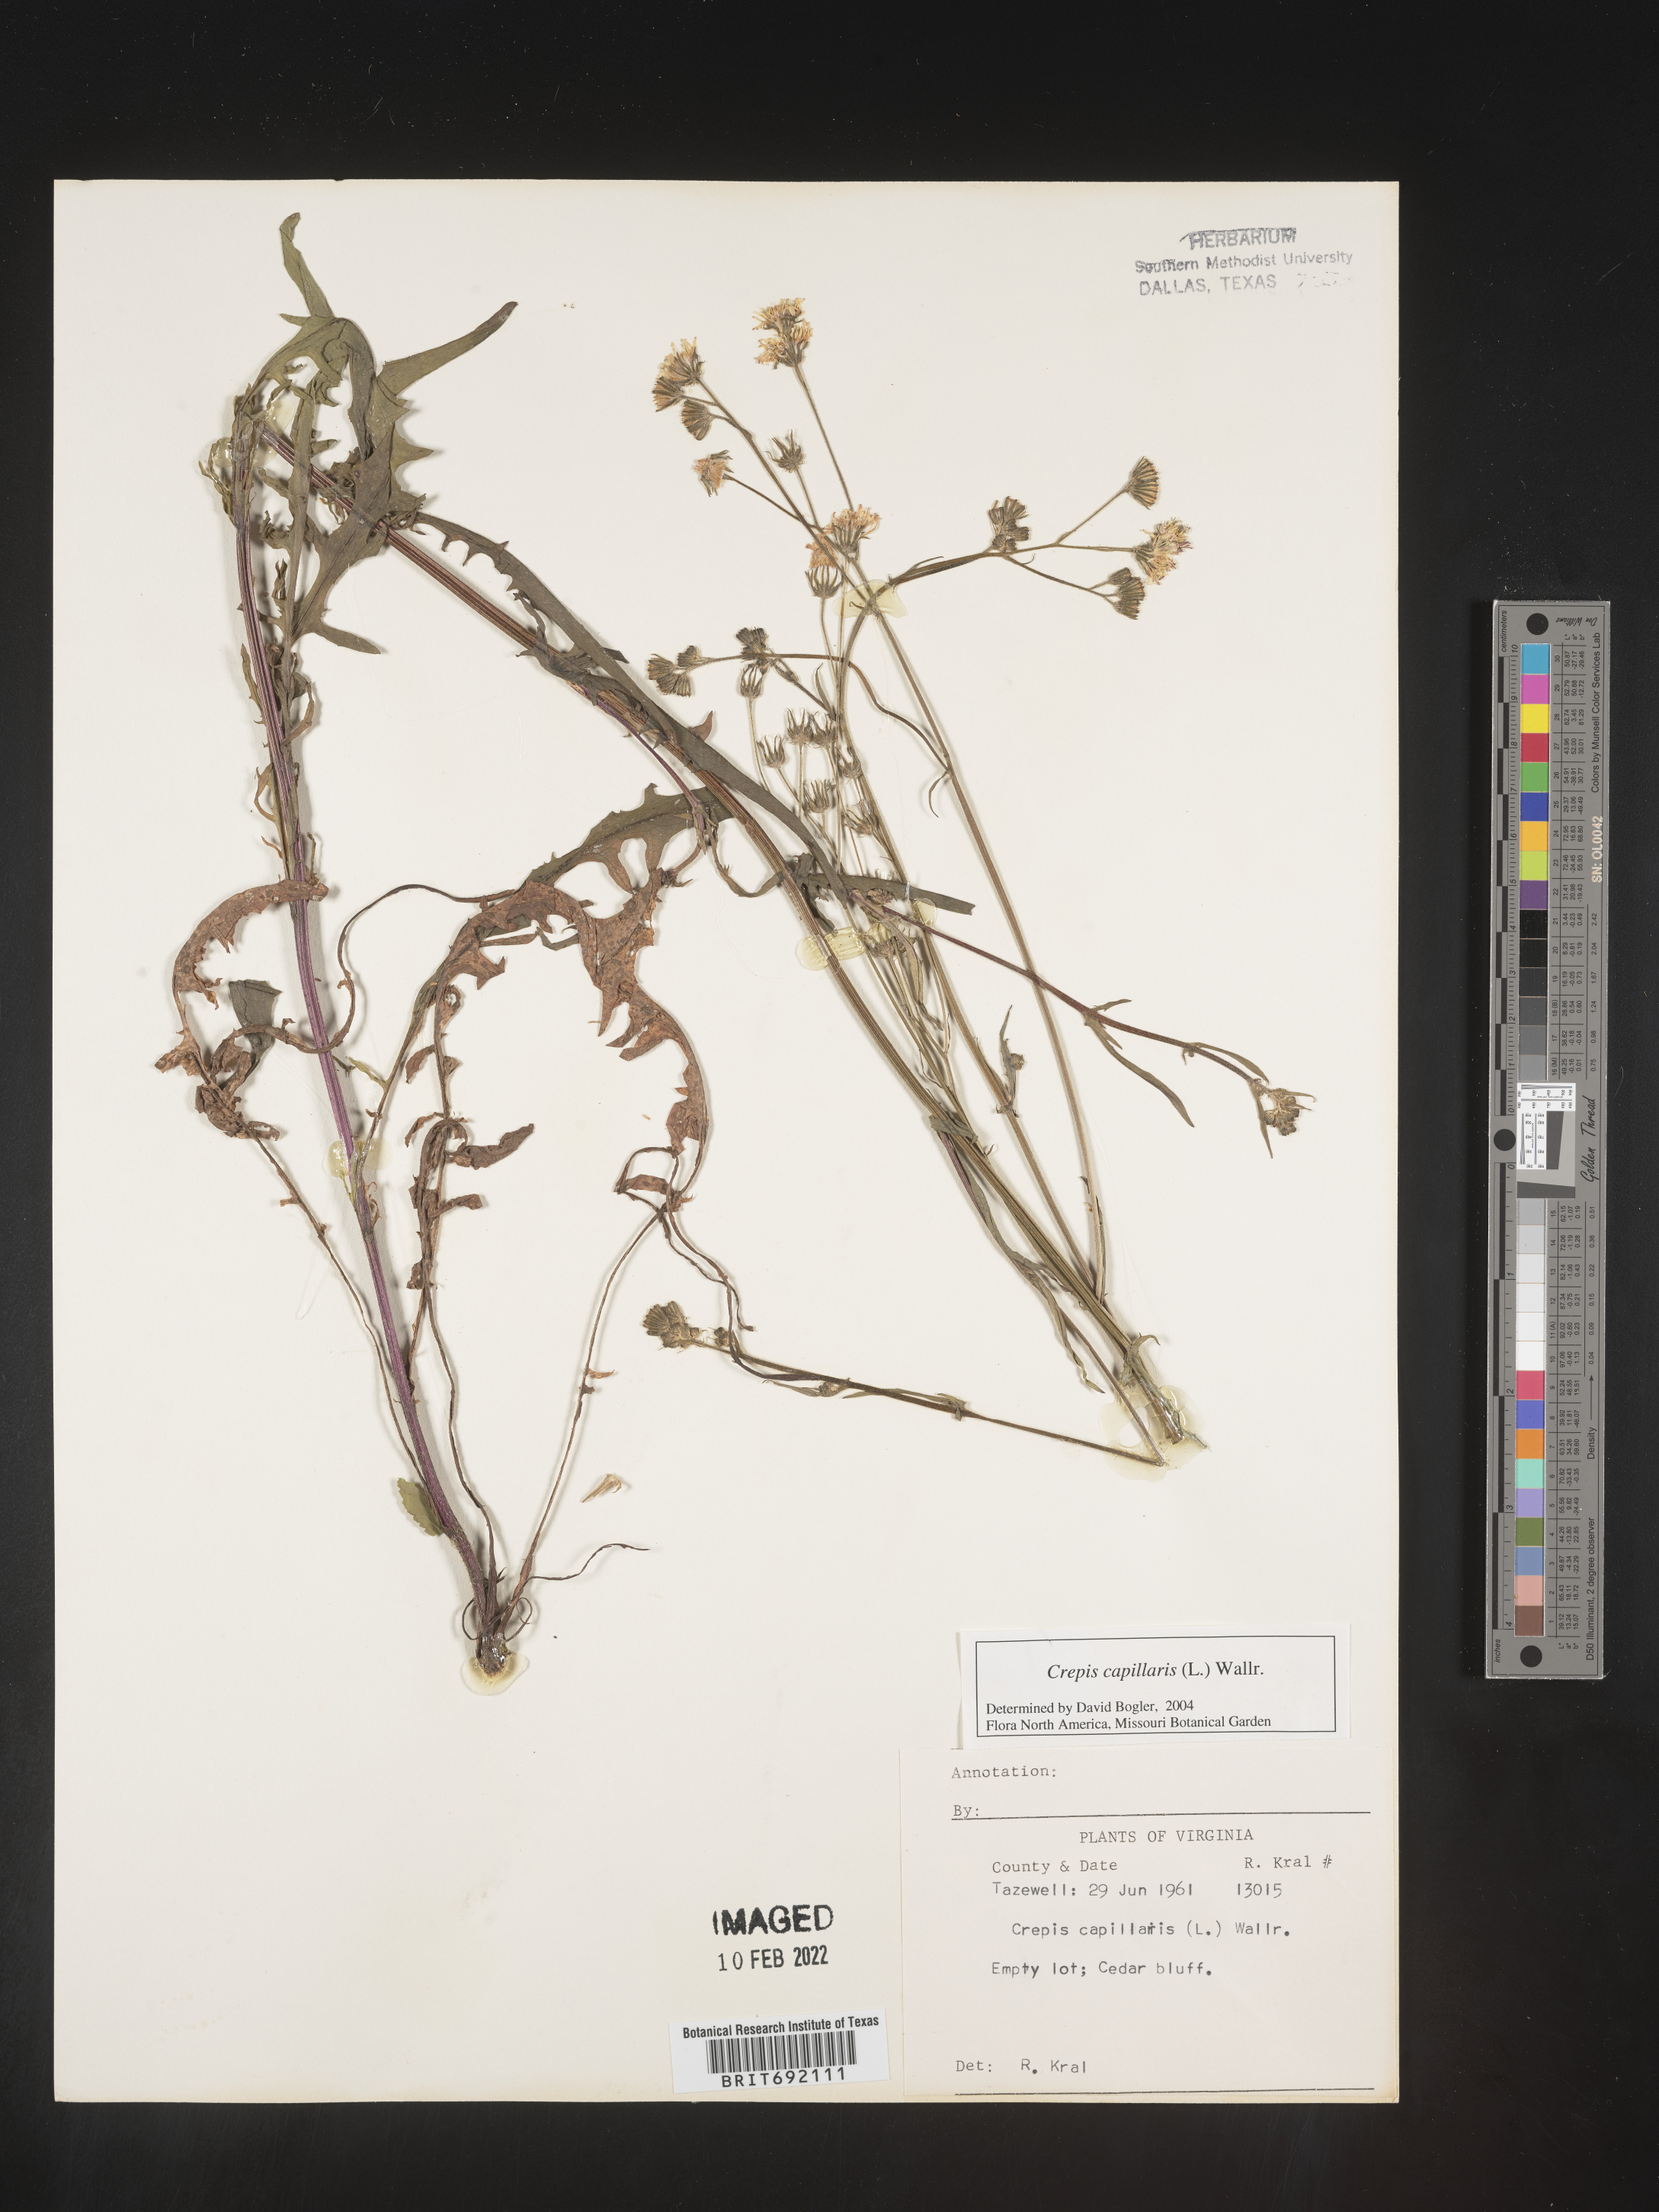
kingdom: Plantae
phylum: Tracheophyta
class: Magnoliopsida
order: Asterales
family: Asteraceae
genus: Crepis
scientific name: Crepis
